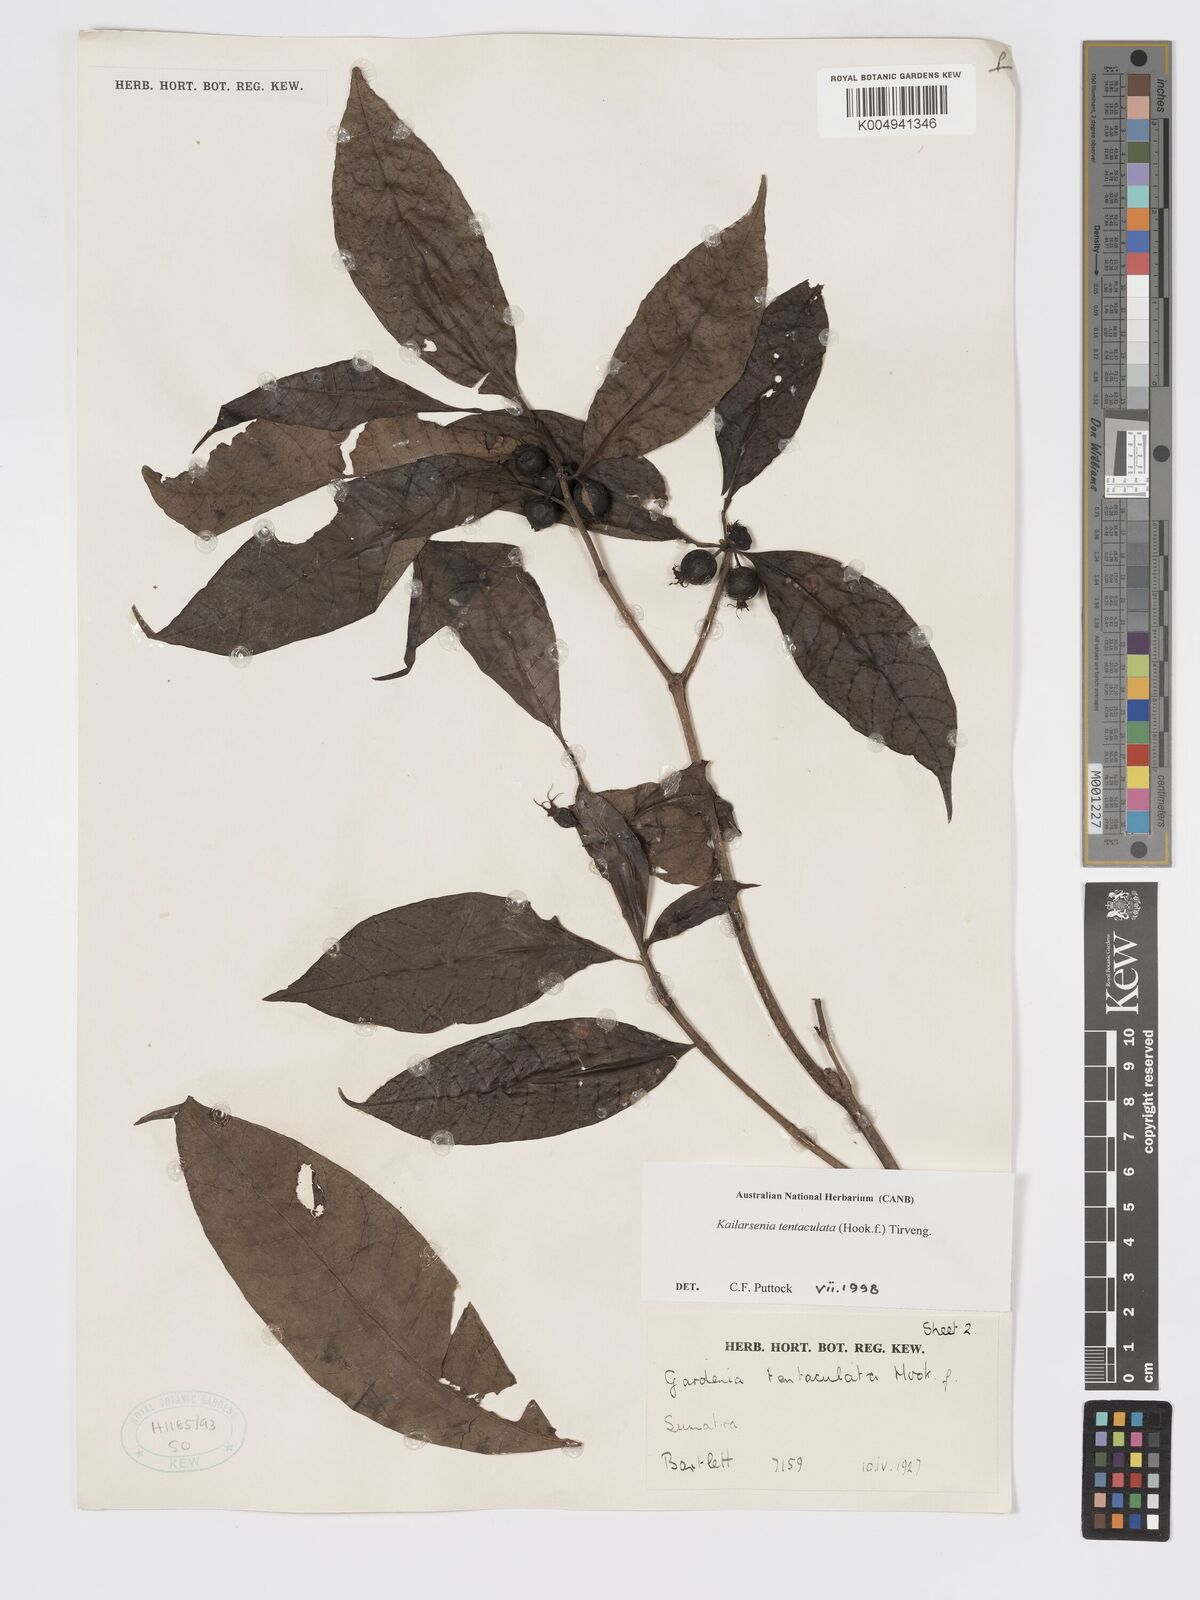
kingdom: Plantae
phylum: Tracheophyta
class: Magnoliopsida
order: Gentianales
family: Rubiaceae
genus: Kailarsenia
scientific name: Kailarsenia tentaculata
